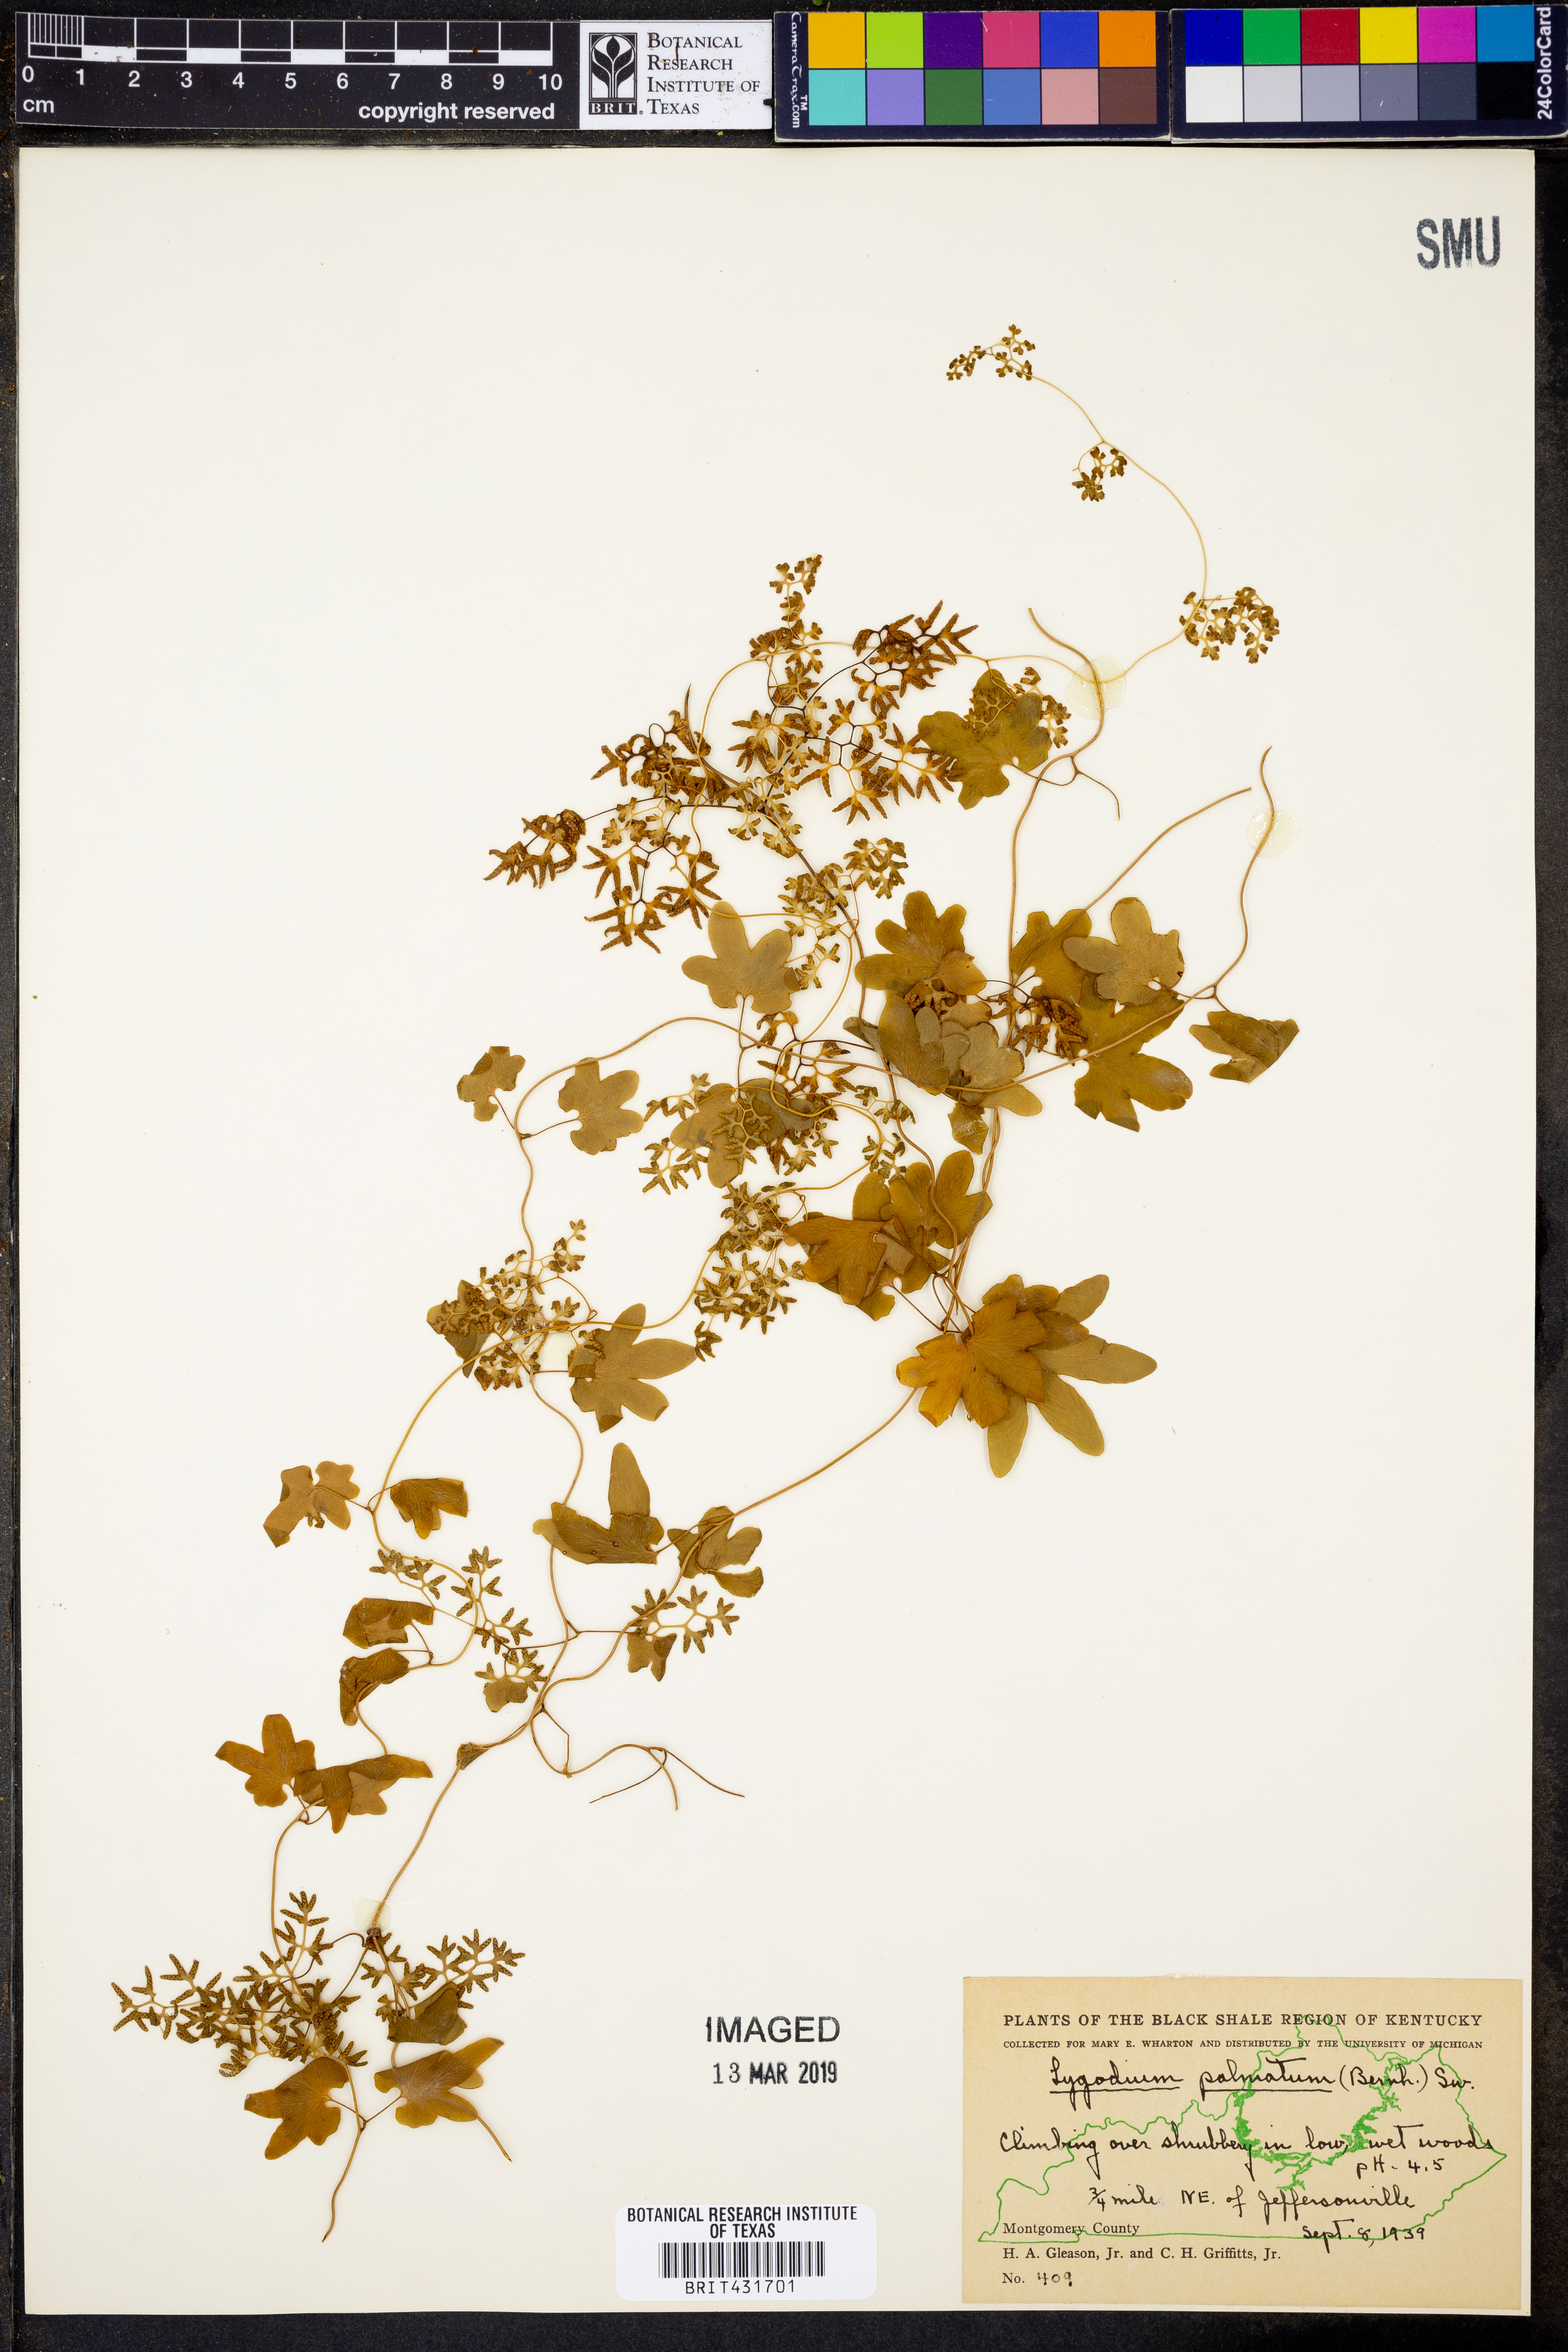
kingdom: Plantae
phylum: Tracheophyta
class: Polypodiopsida
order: Schizaeales
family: Lygodiaceae
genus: Lygodium
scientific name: Lygodium palmatum
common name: American climbing fern
